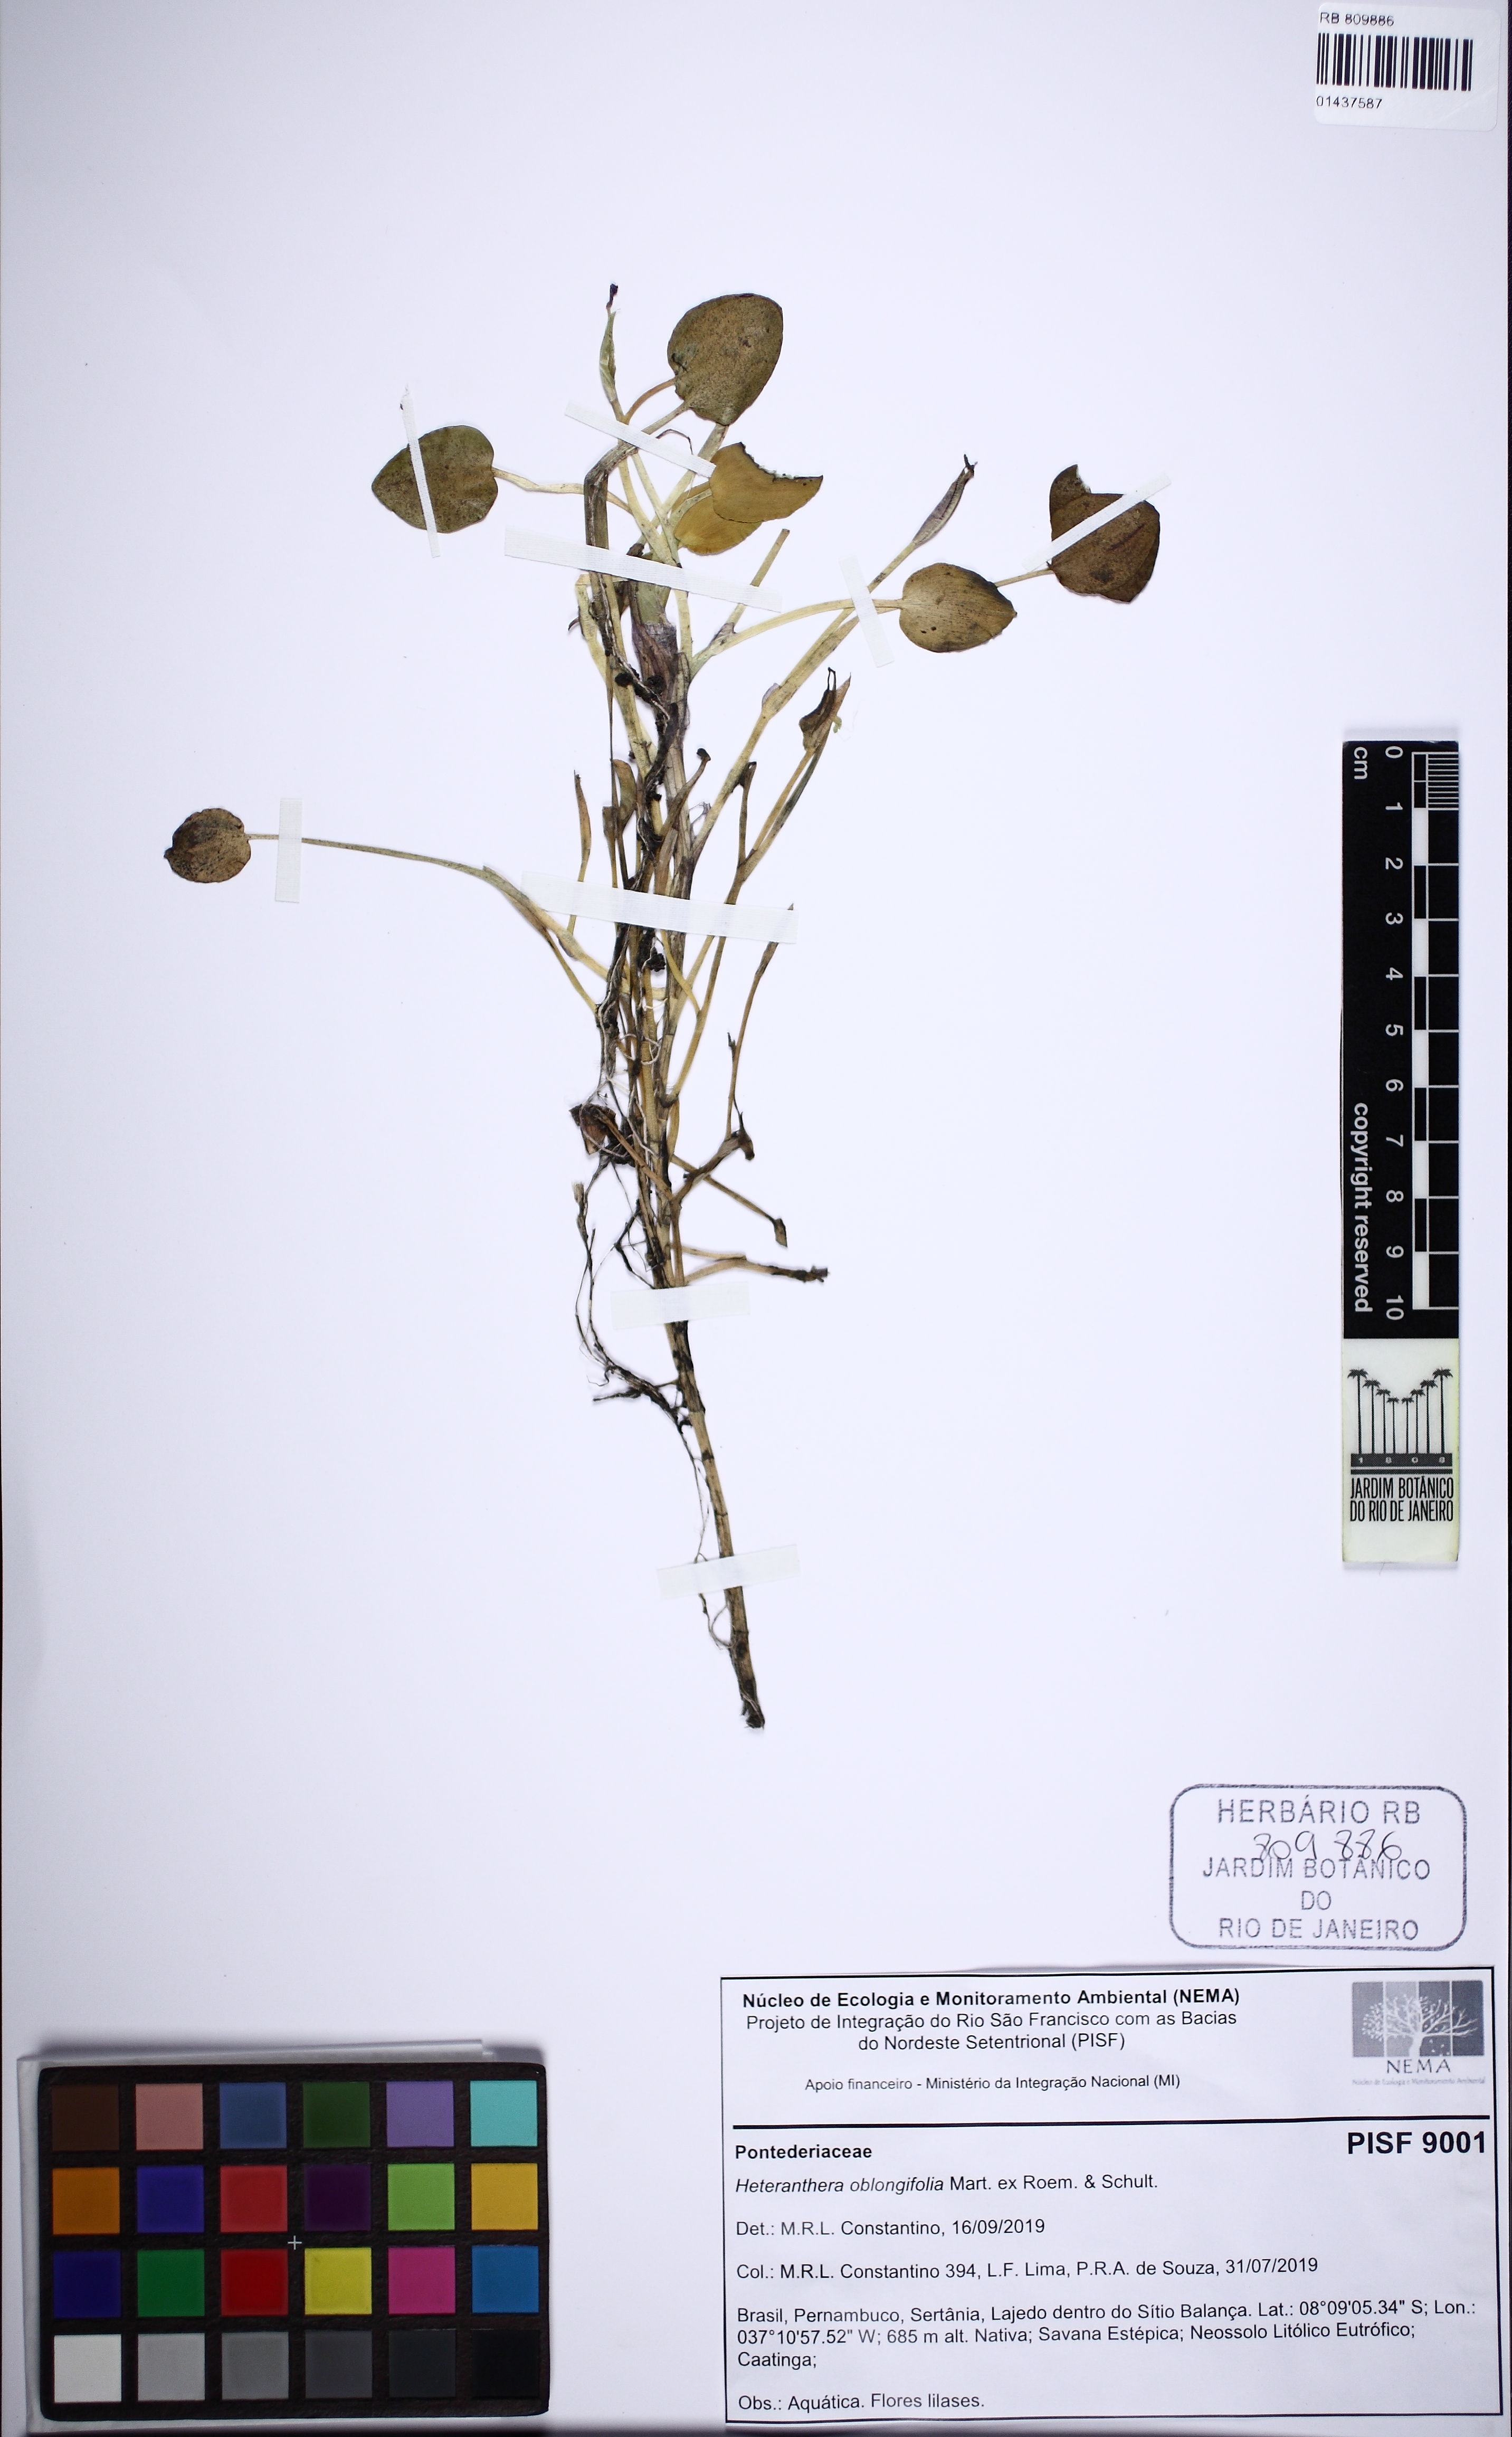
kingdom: Plantae
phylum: Tracheophyta
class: Liliopsida
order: Commelinales
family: Pontederiaceae
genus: Heteranthera
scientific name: Heteranthera oblongifolia
